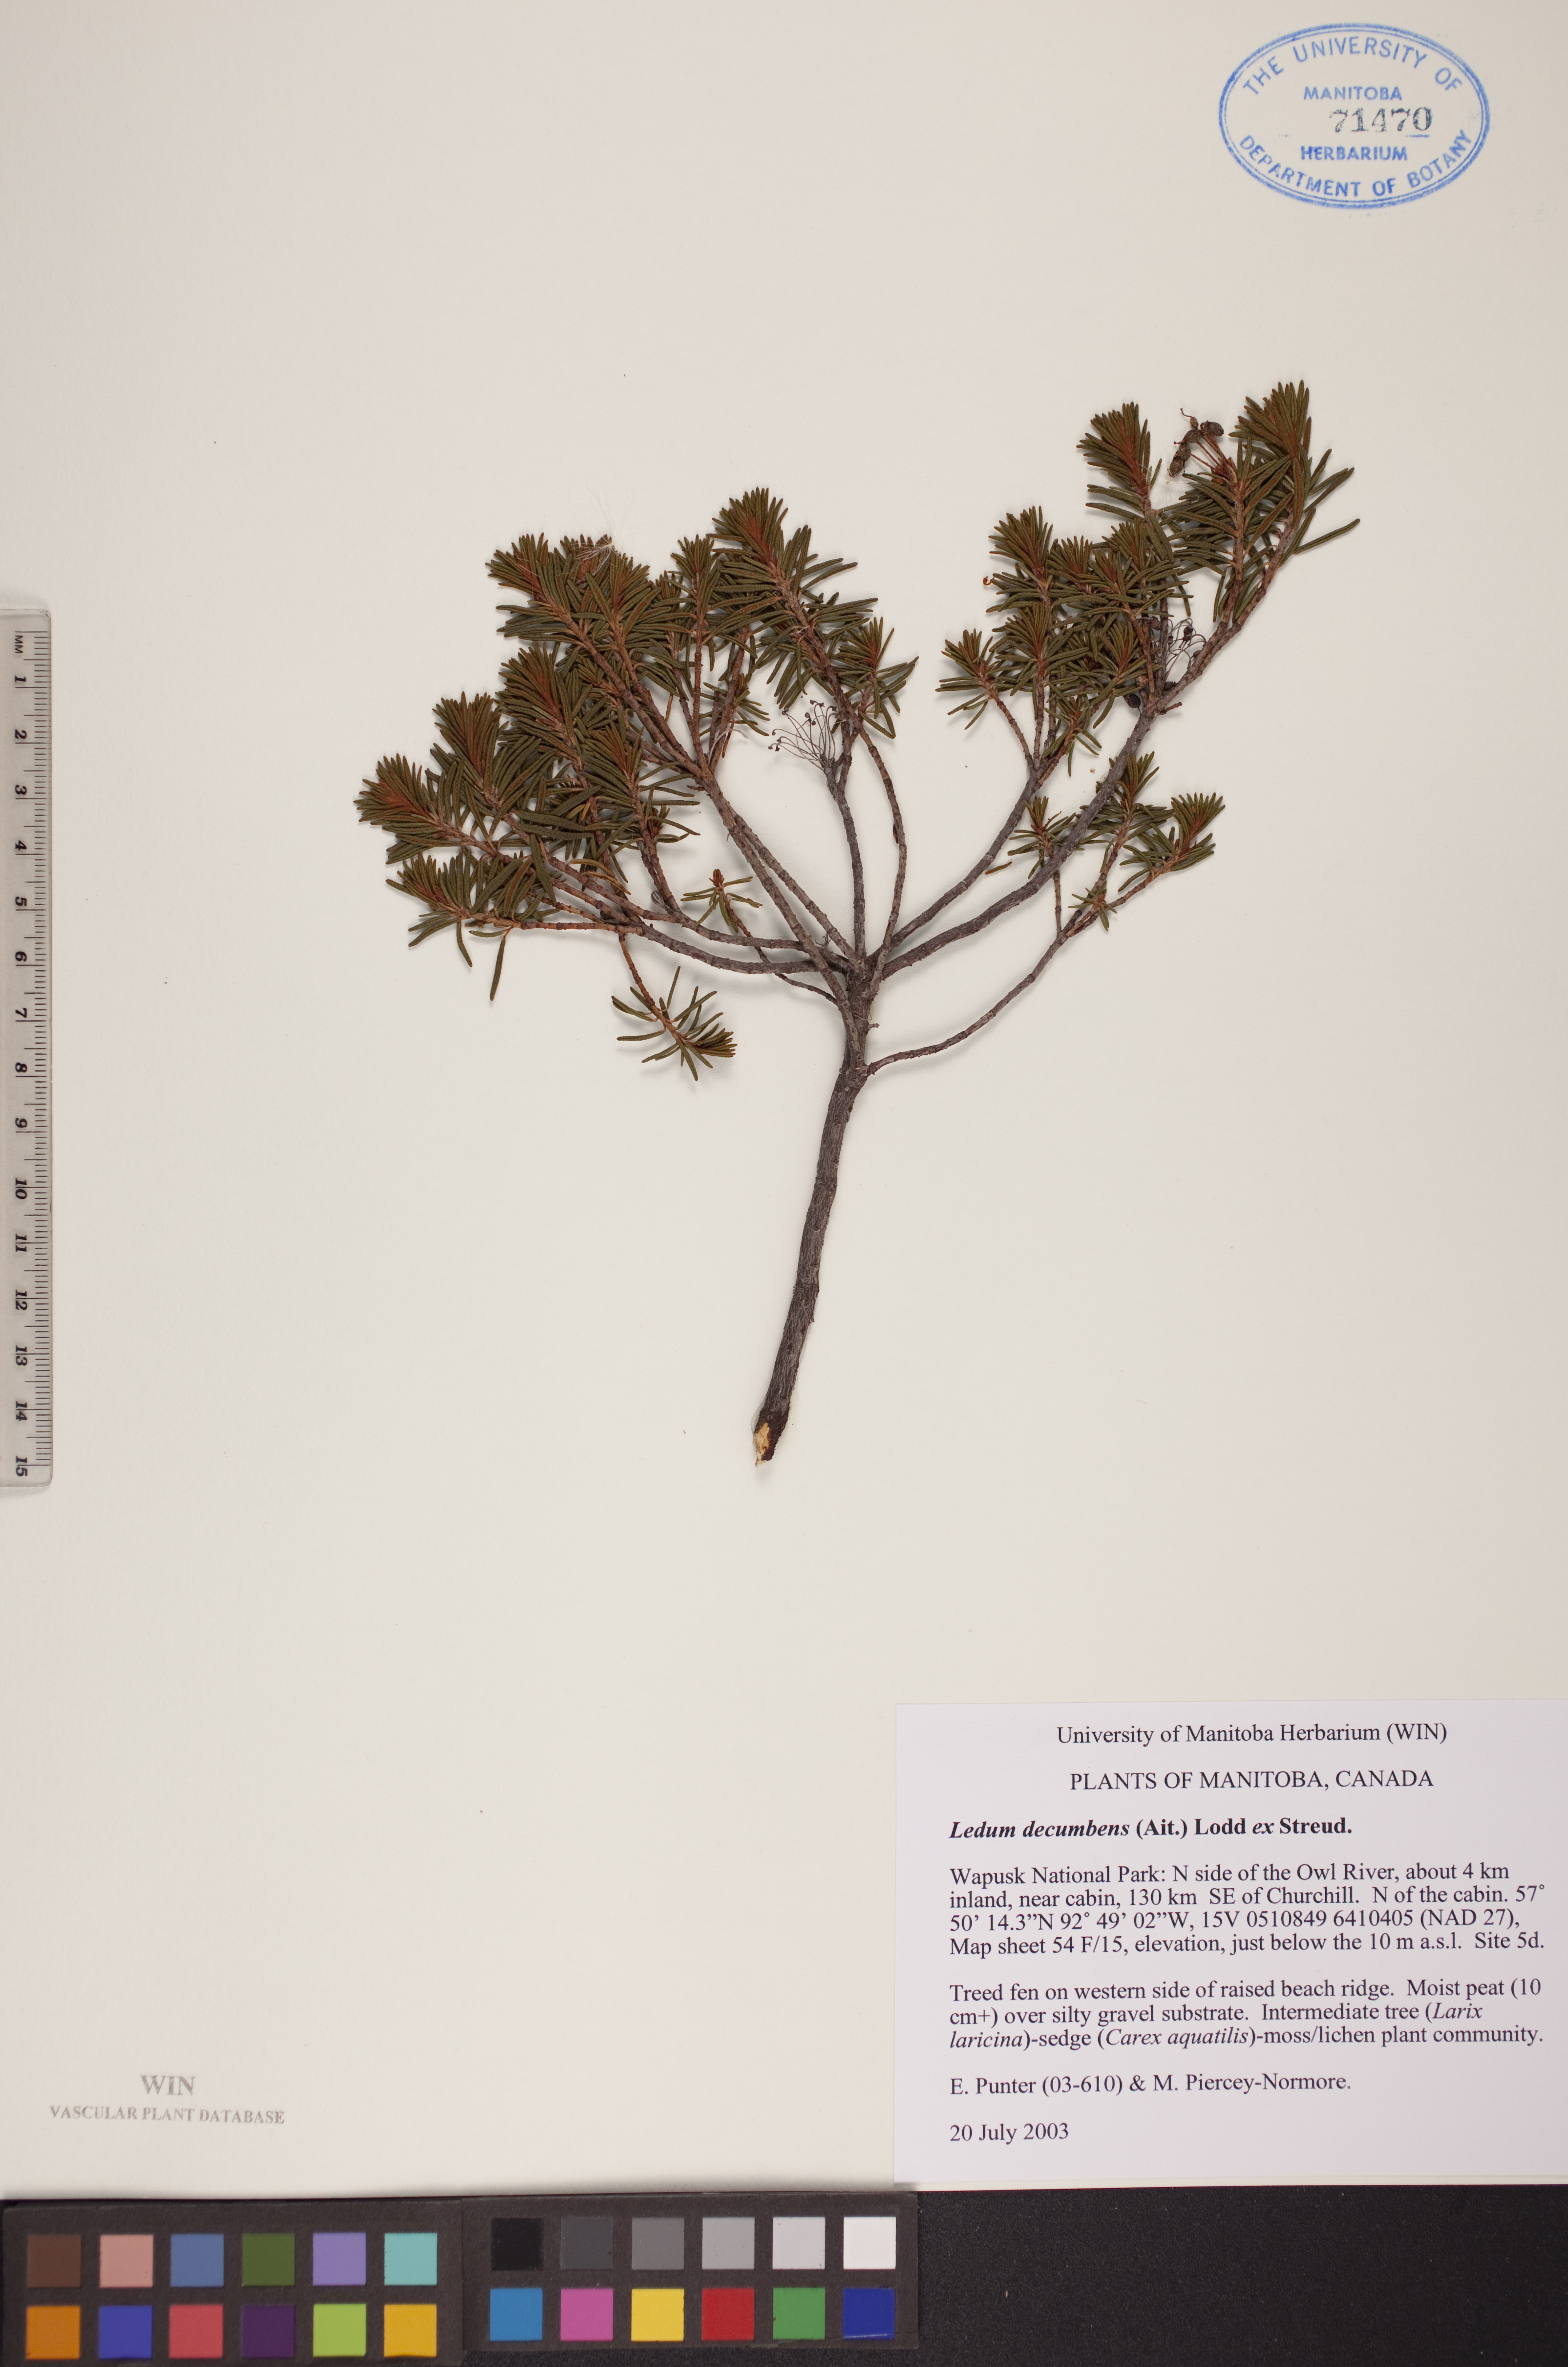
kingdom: Plantae
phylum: Tracheophyta
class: Magnoliopsida
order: Ericales
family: Ericaceae
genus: Rhododendron
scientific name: Rhododendron tomentosum
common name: Marsh labrador tea
